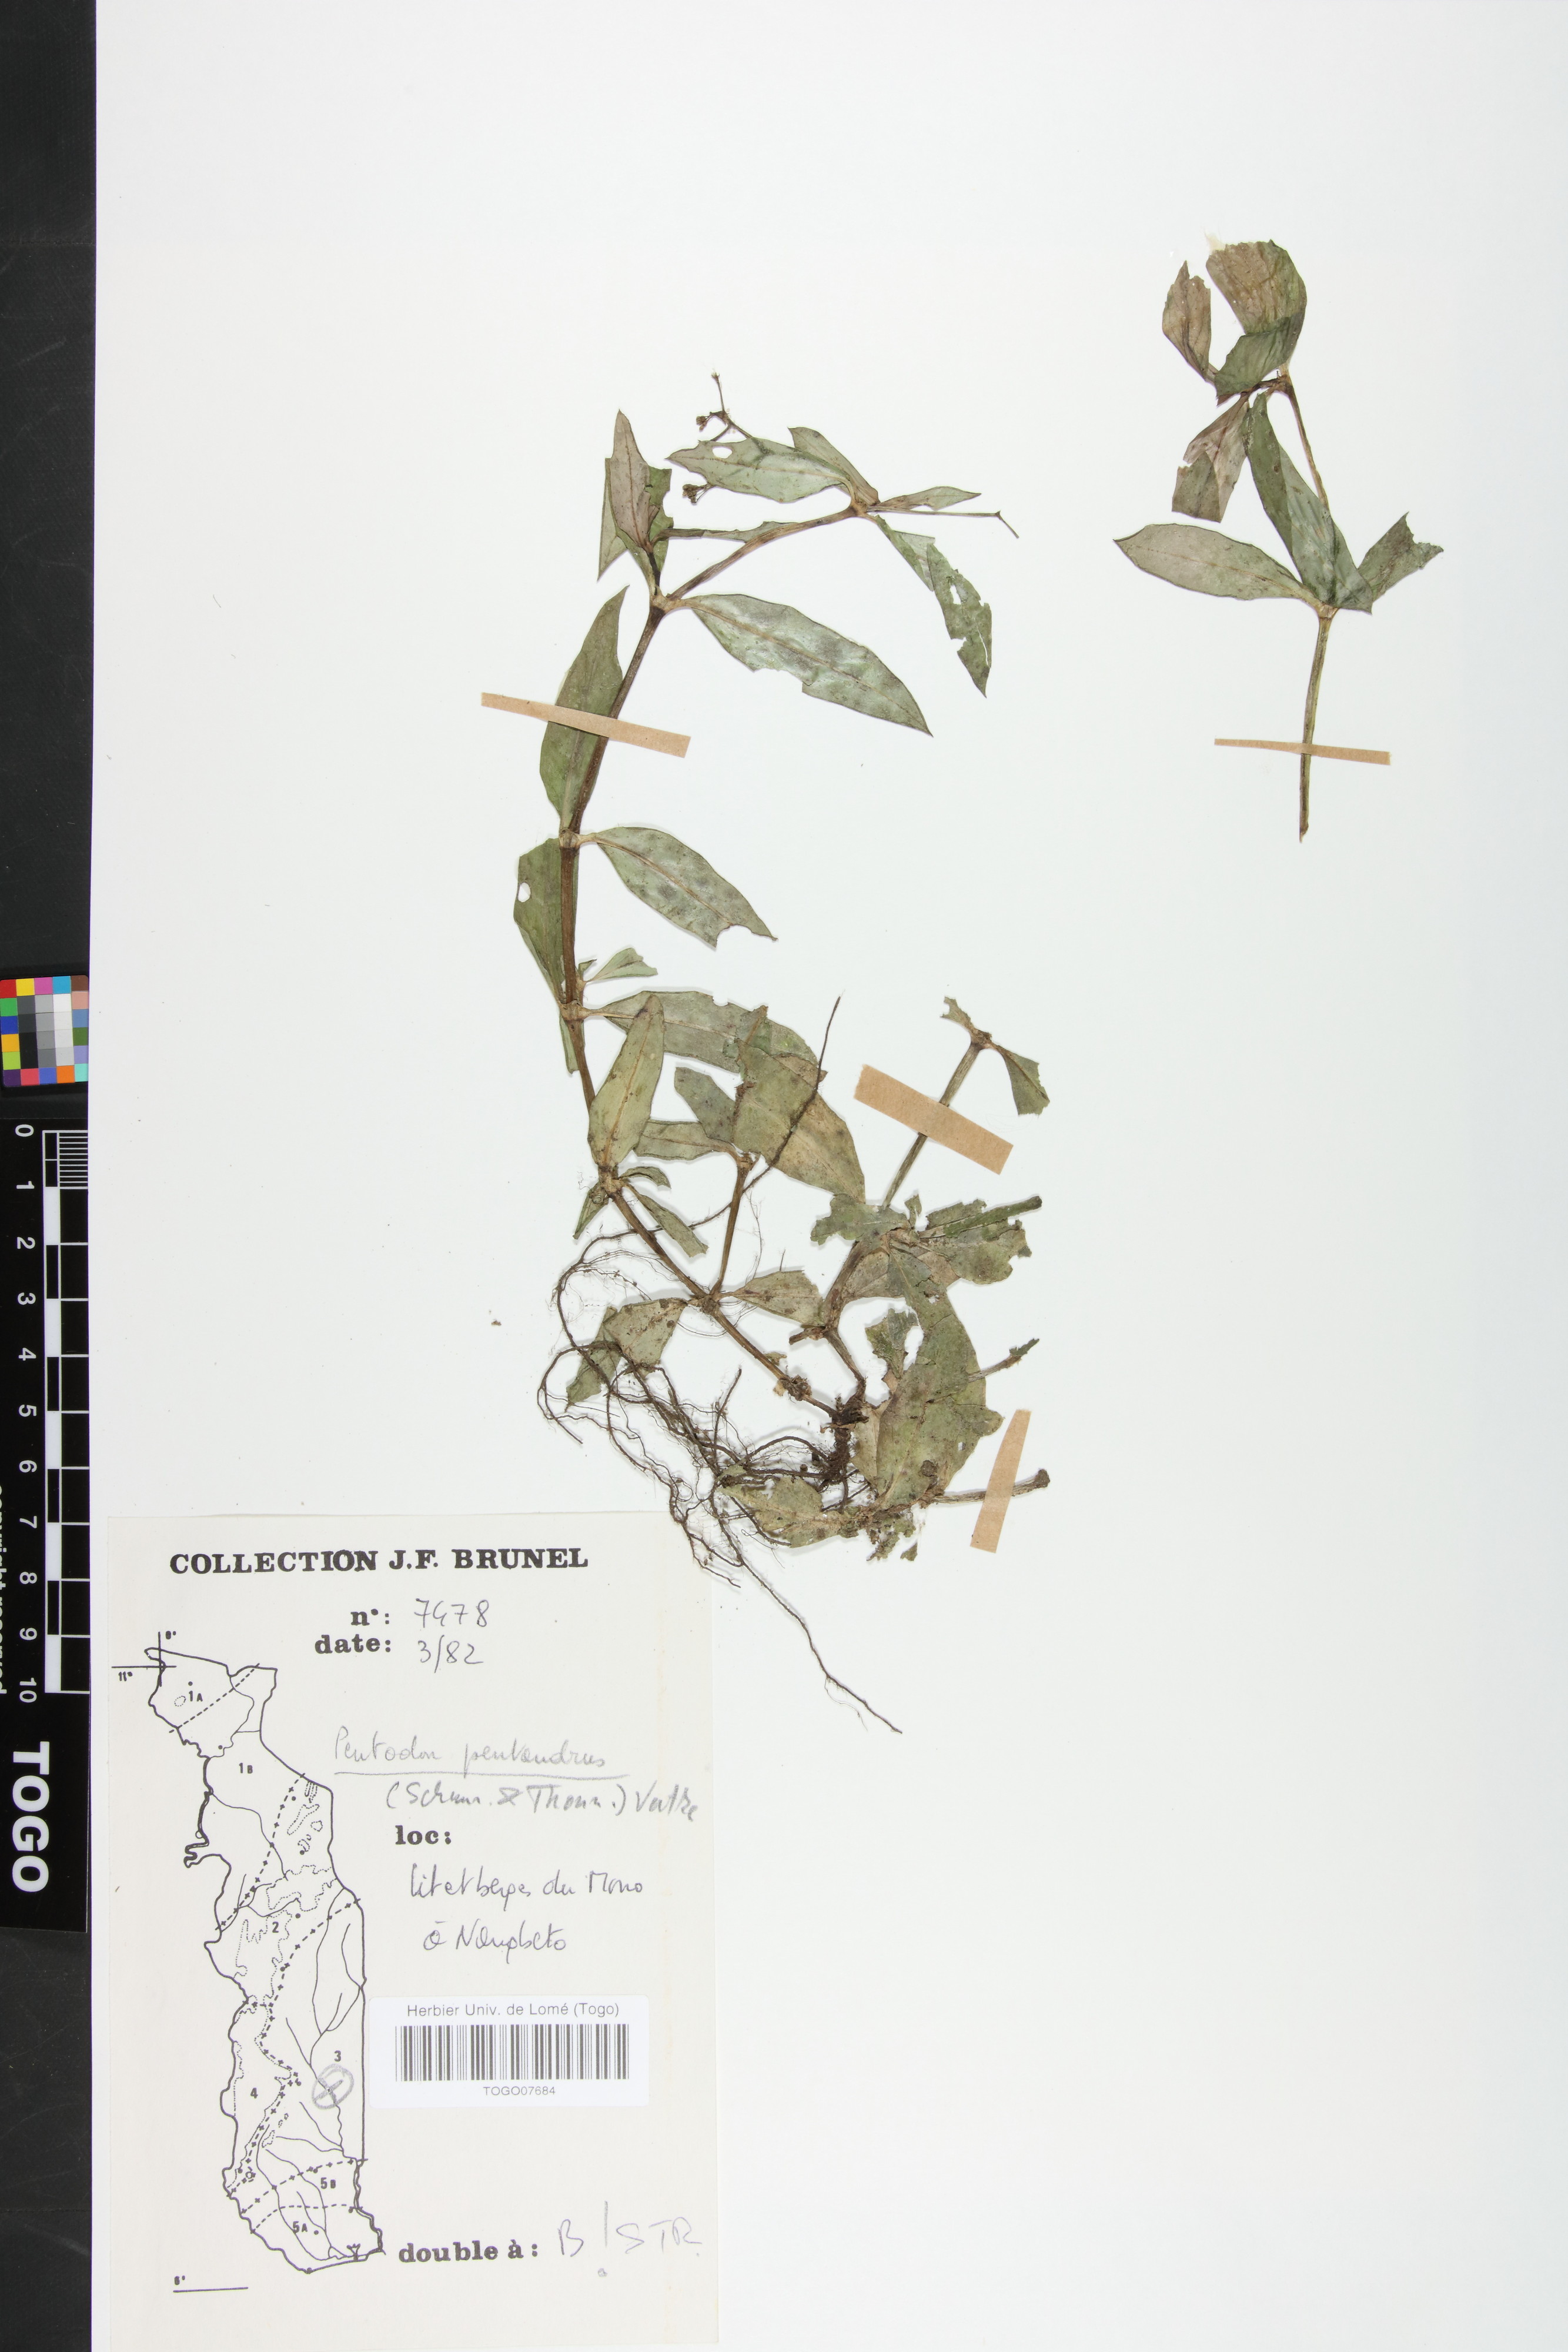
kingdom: Plantae
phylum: Tracheophyta
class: Magnoliopsida
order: Gentianales
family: Rubiaceae
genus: Pentodon
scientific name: Pentodon pentandrus
